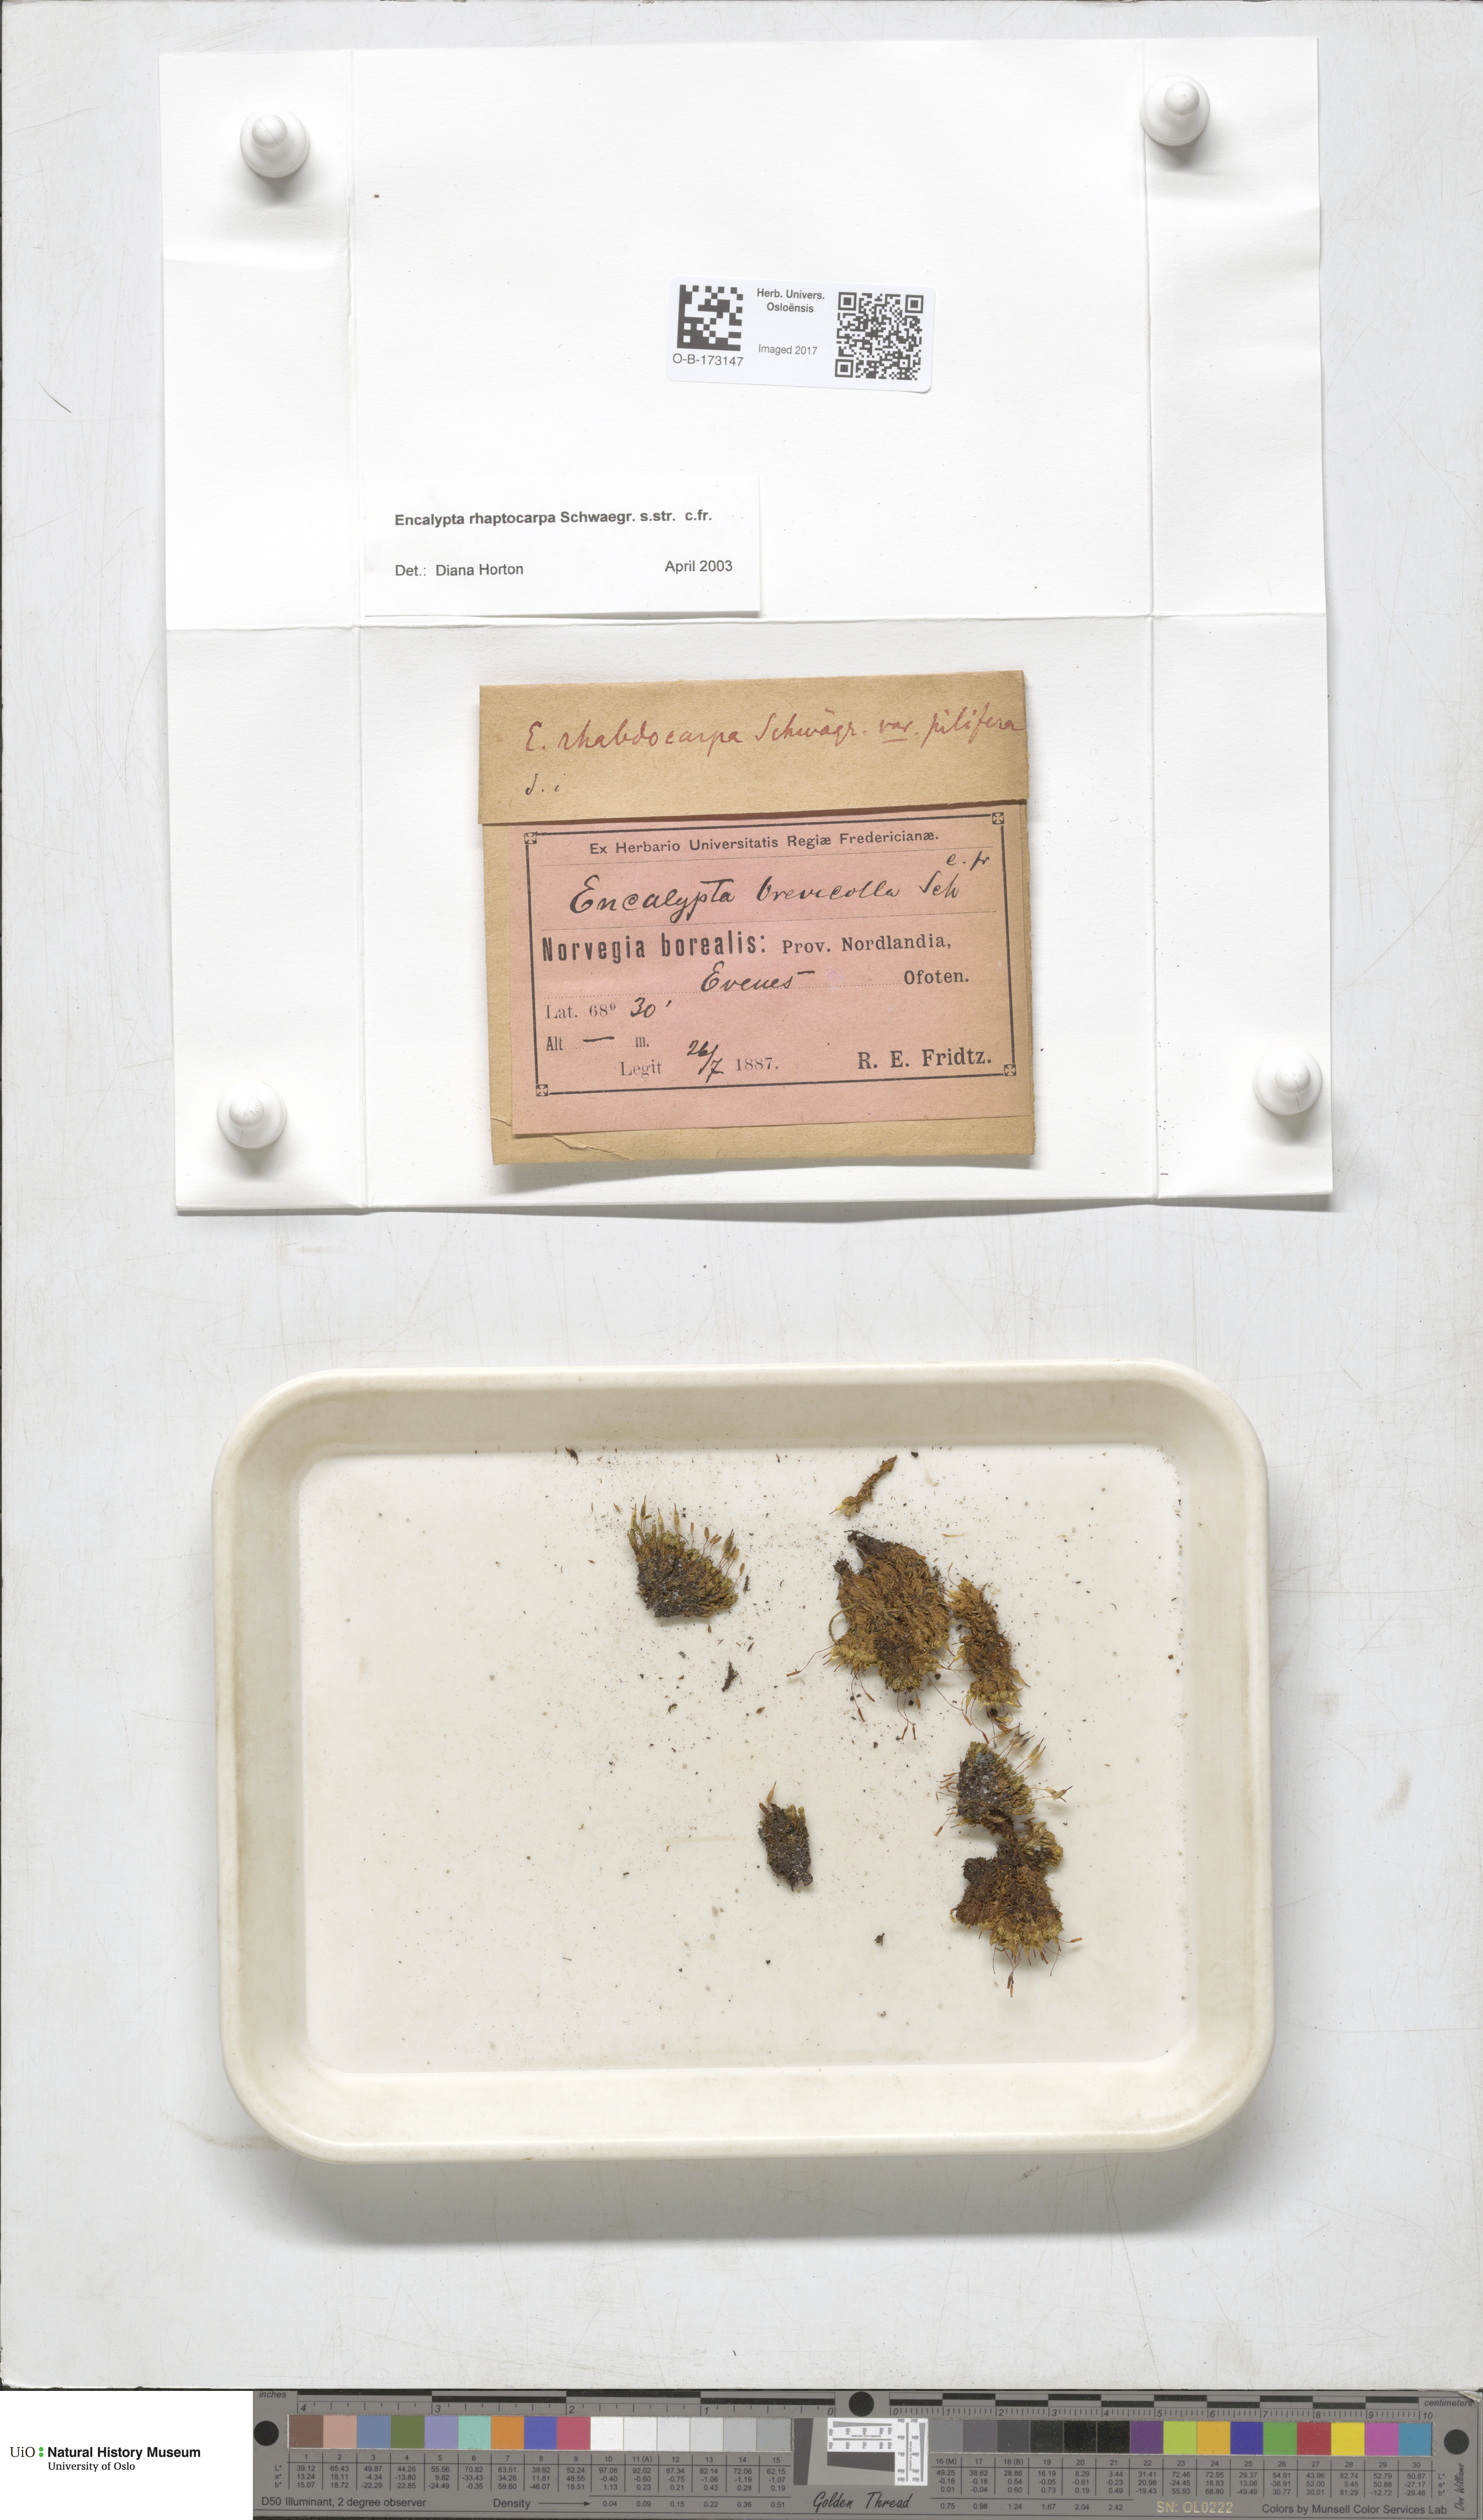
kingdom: Plantae
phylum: Bryophyta
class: Bryopsida
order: Encalyptales
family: Encalyptaceae
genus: Encalypta
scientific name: Encalypta rhaptocarpa
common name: Ribbed extinguisher moss
